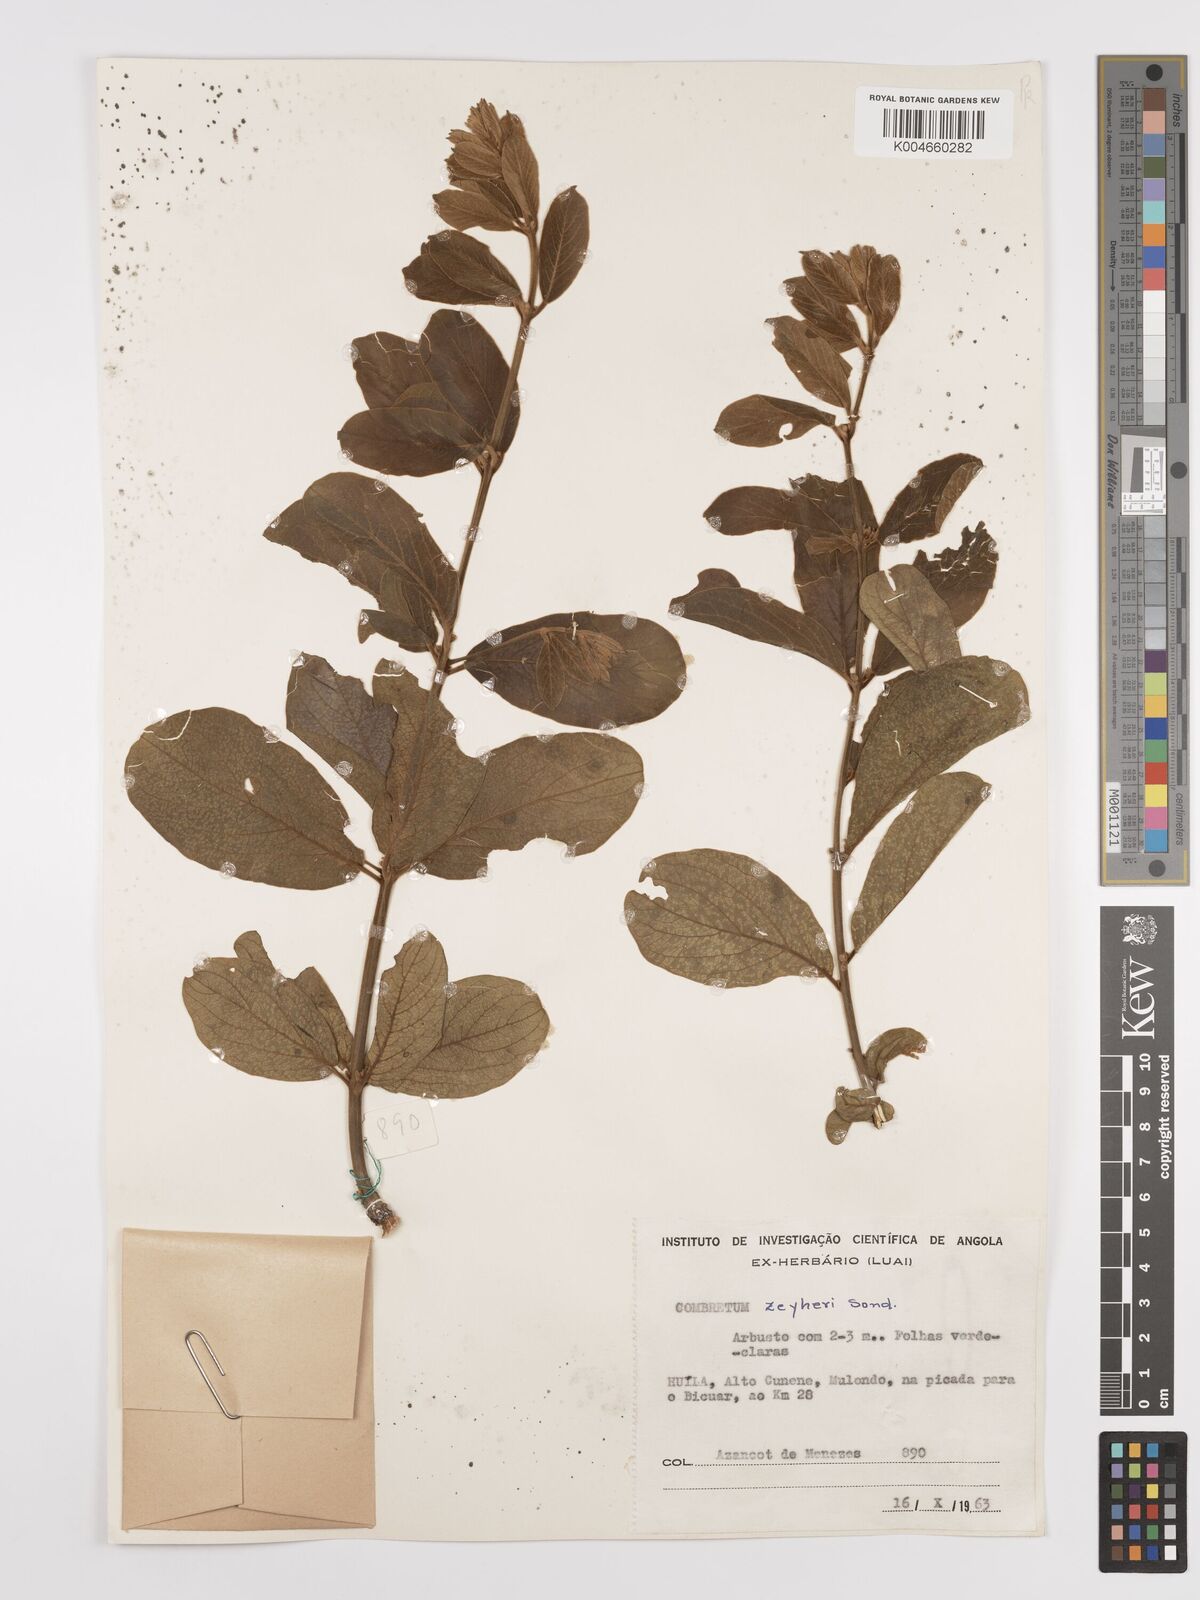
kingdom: Plantae
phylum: Tracheophyta
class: Magnoliopsida
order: Myrtales
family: Combretaceae
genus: Combretum
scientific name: Combretum zeyheri
